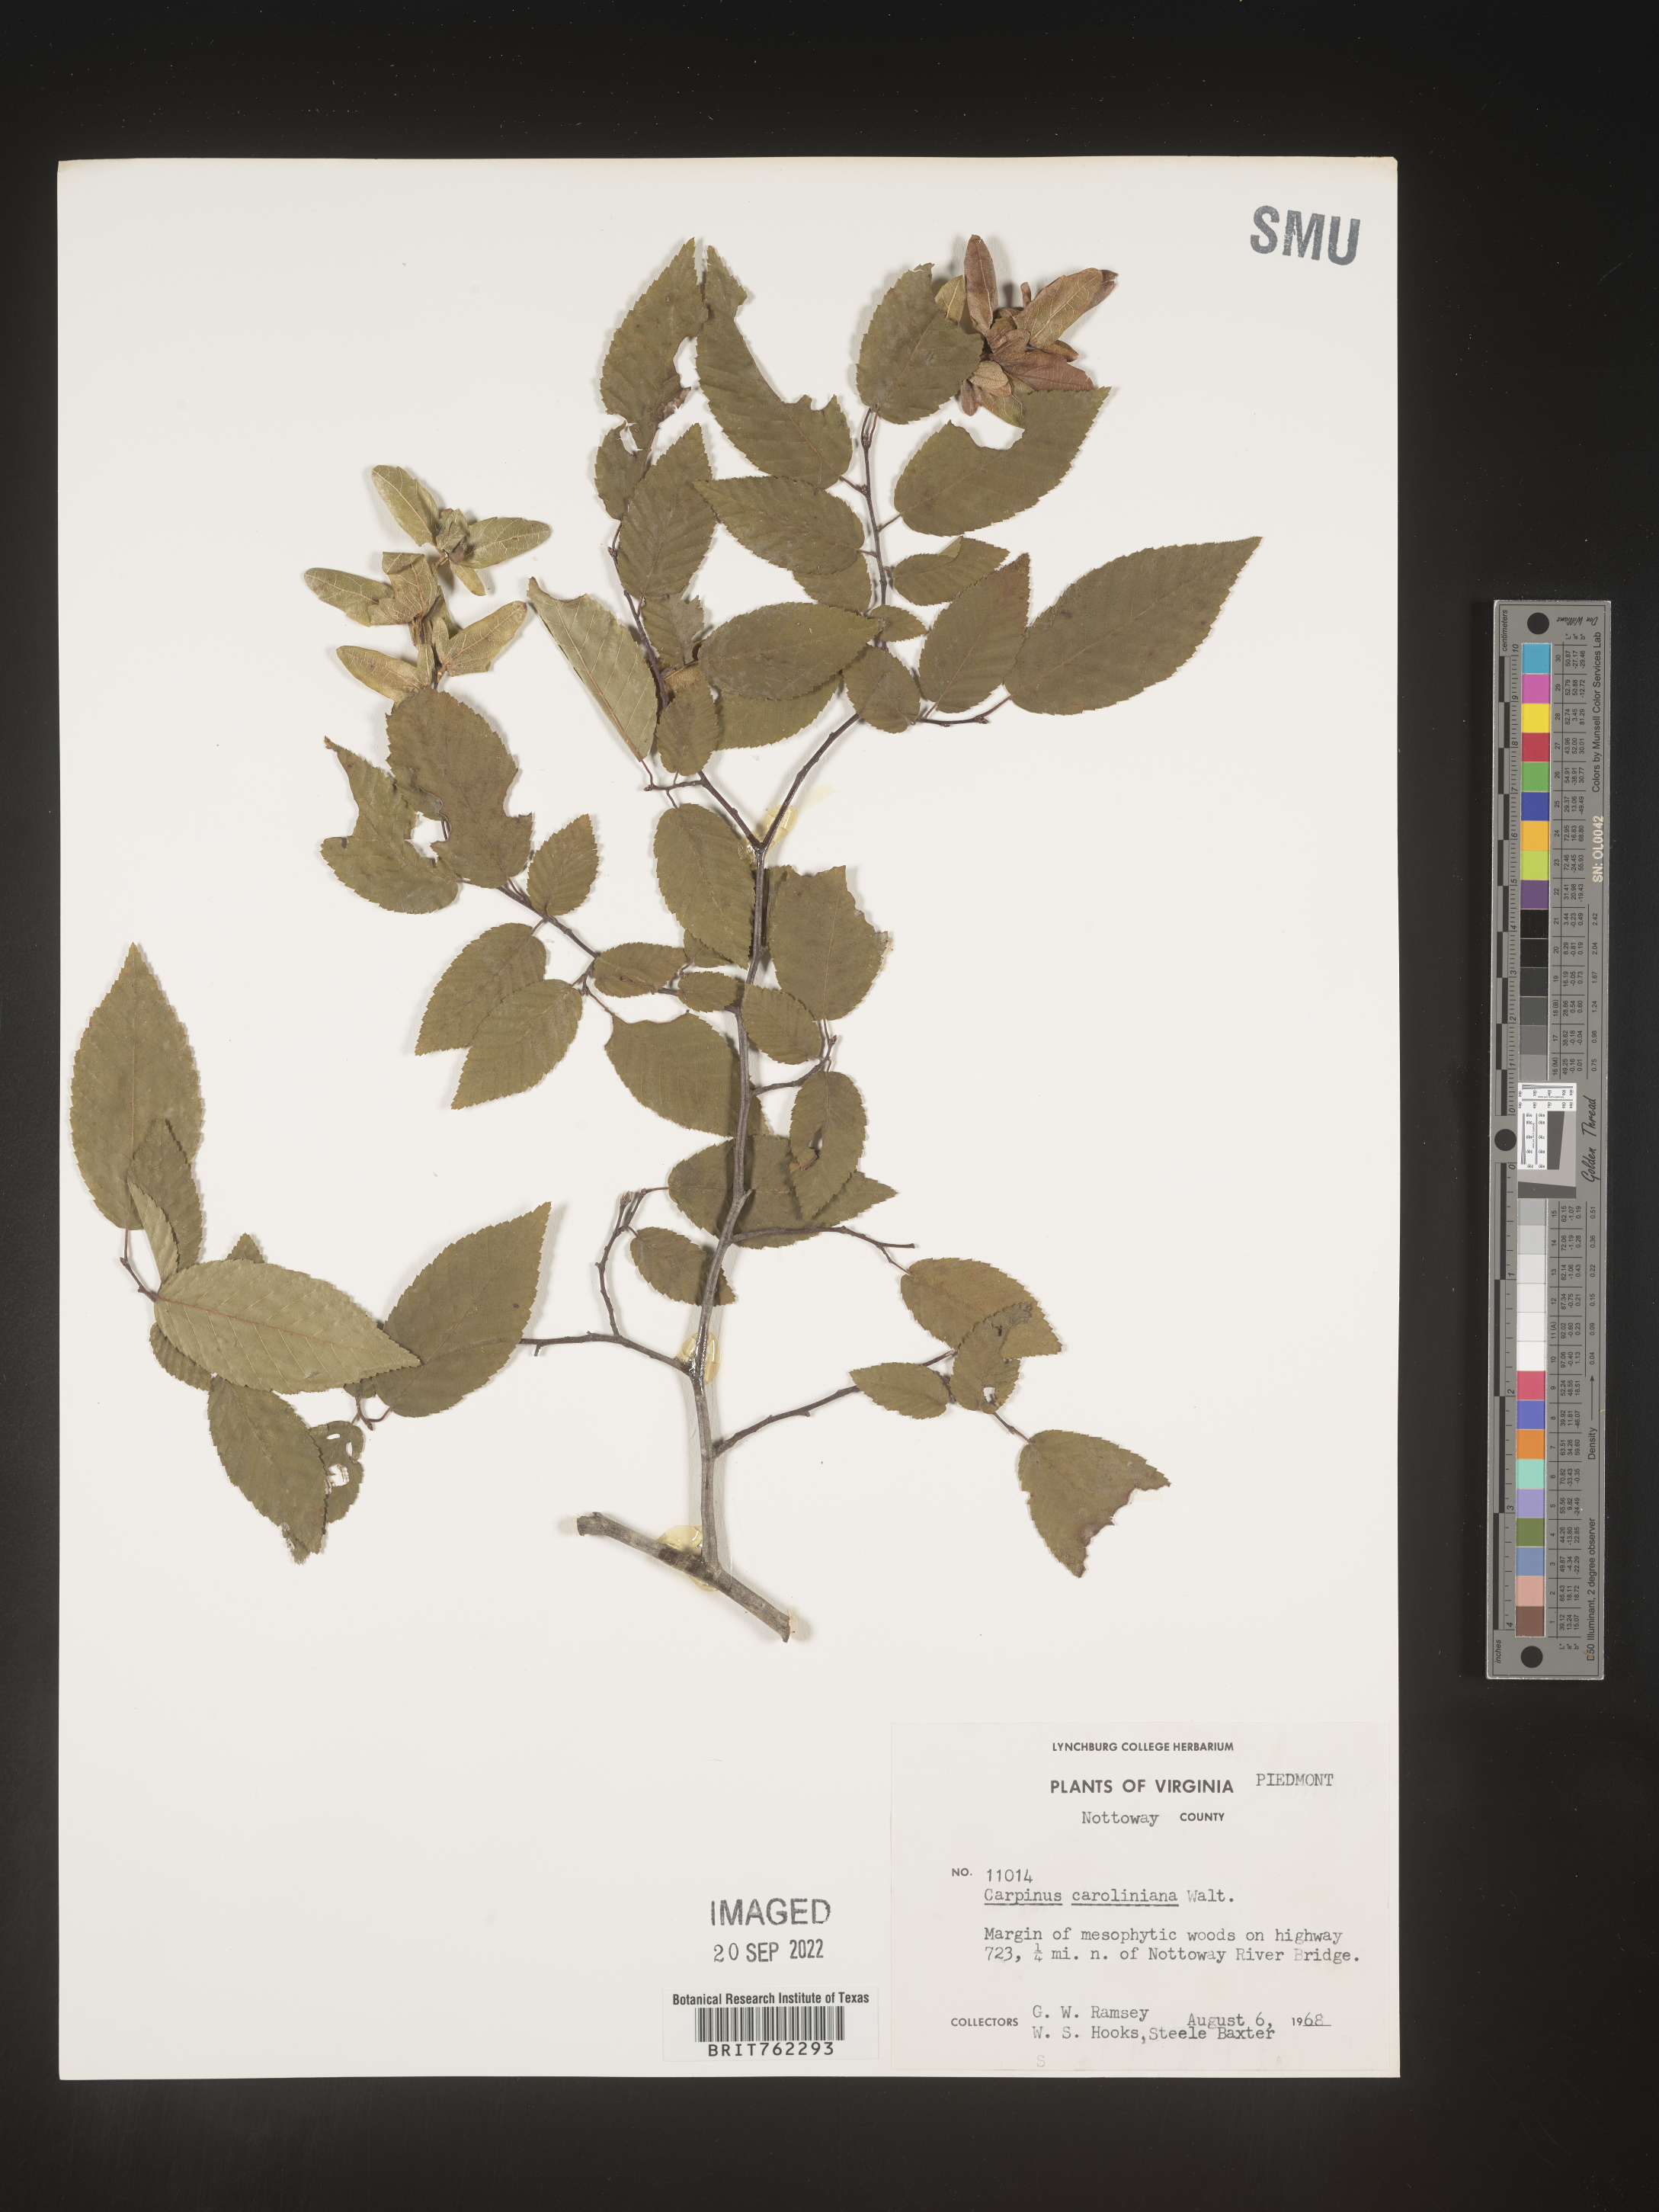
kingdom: Plantae
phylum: Tracheophyta
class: Magnoliopsida
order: Fagales
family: Betulaceae
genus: Carpinus
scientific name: Carpinus caroliniana
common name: American hornbeam
